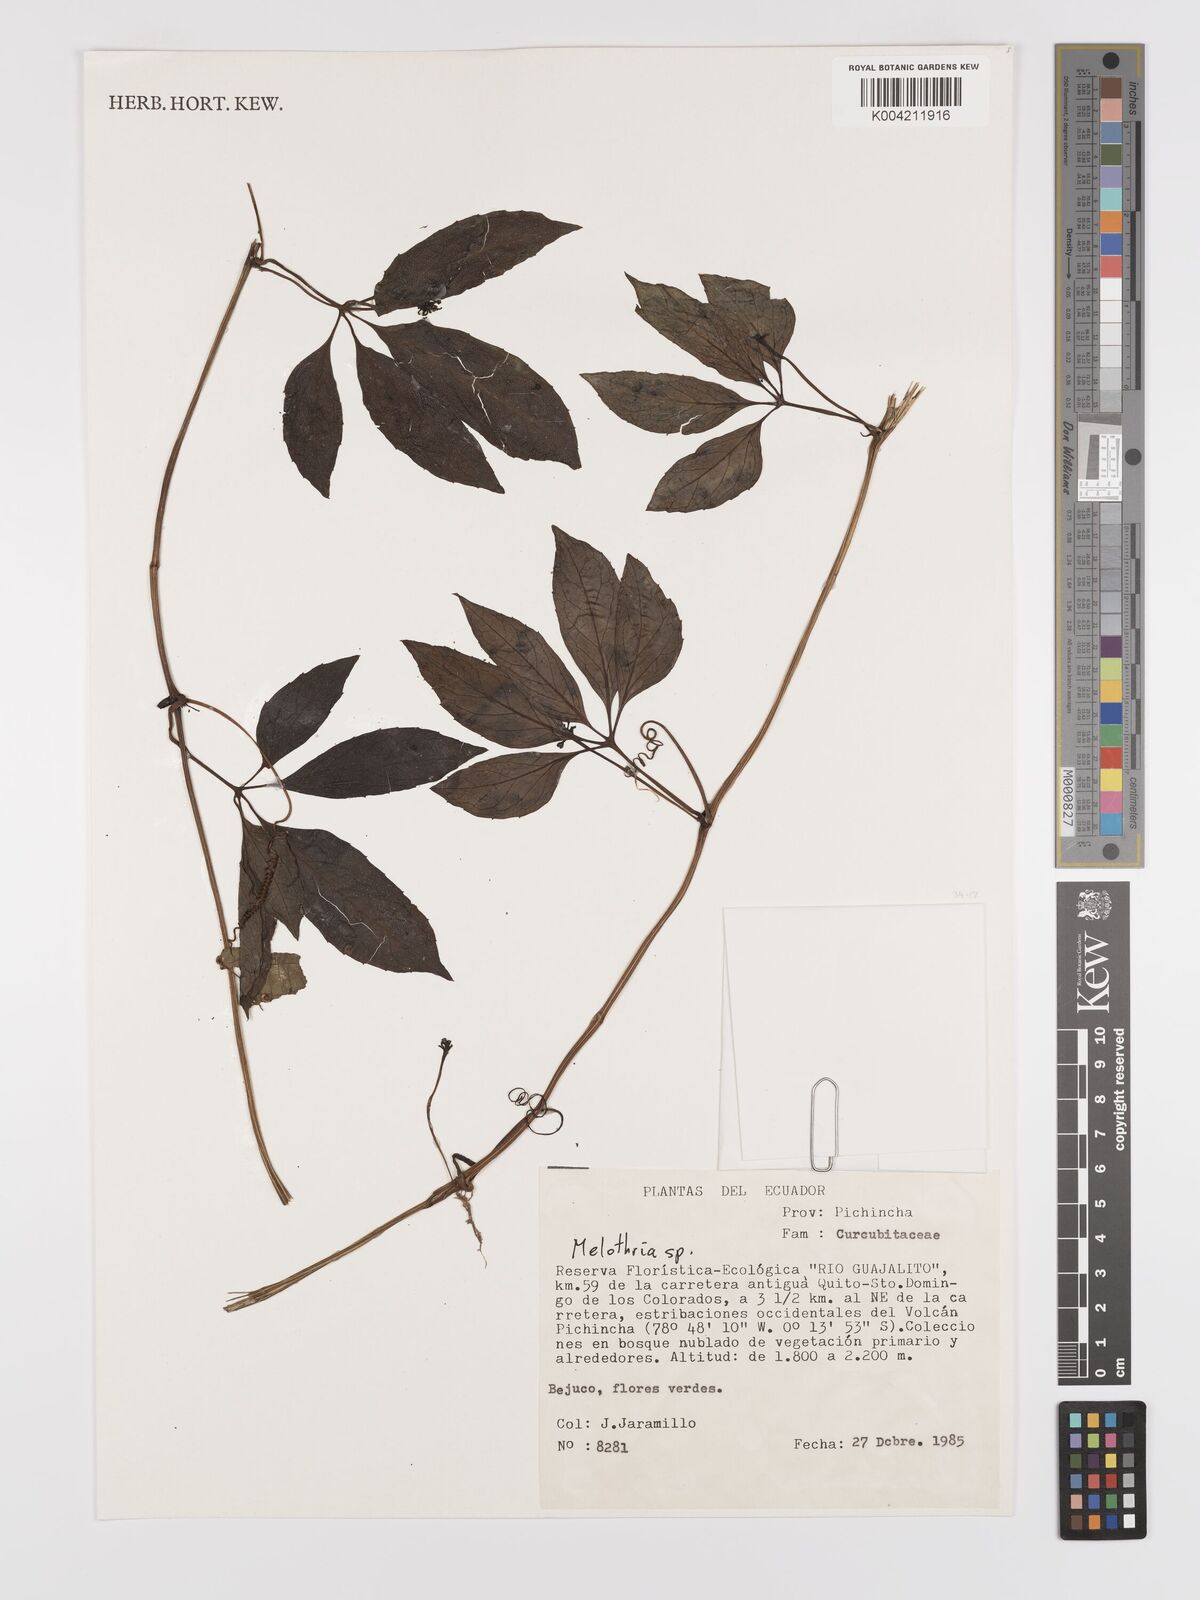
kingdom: Plantae
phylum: Tracheophyta
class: Magnoliopsida
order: Cucurbitales
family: Cucurbitaceae
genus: Melothria
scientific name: Melothria
